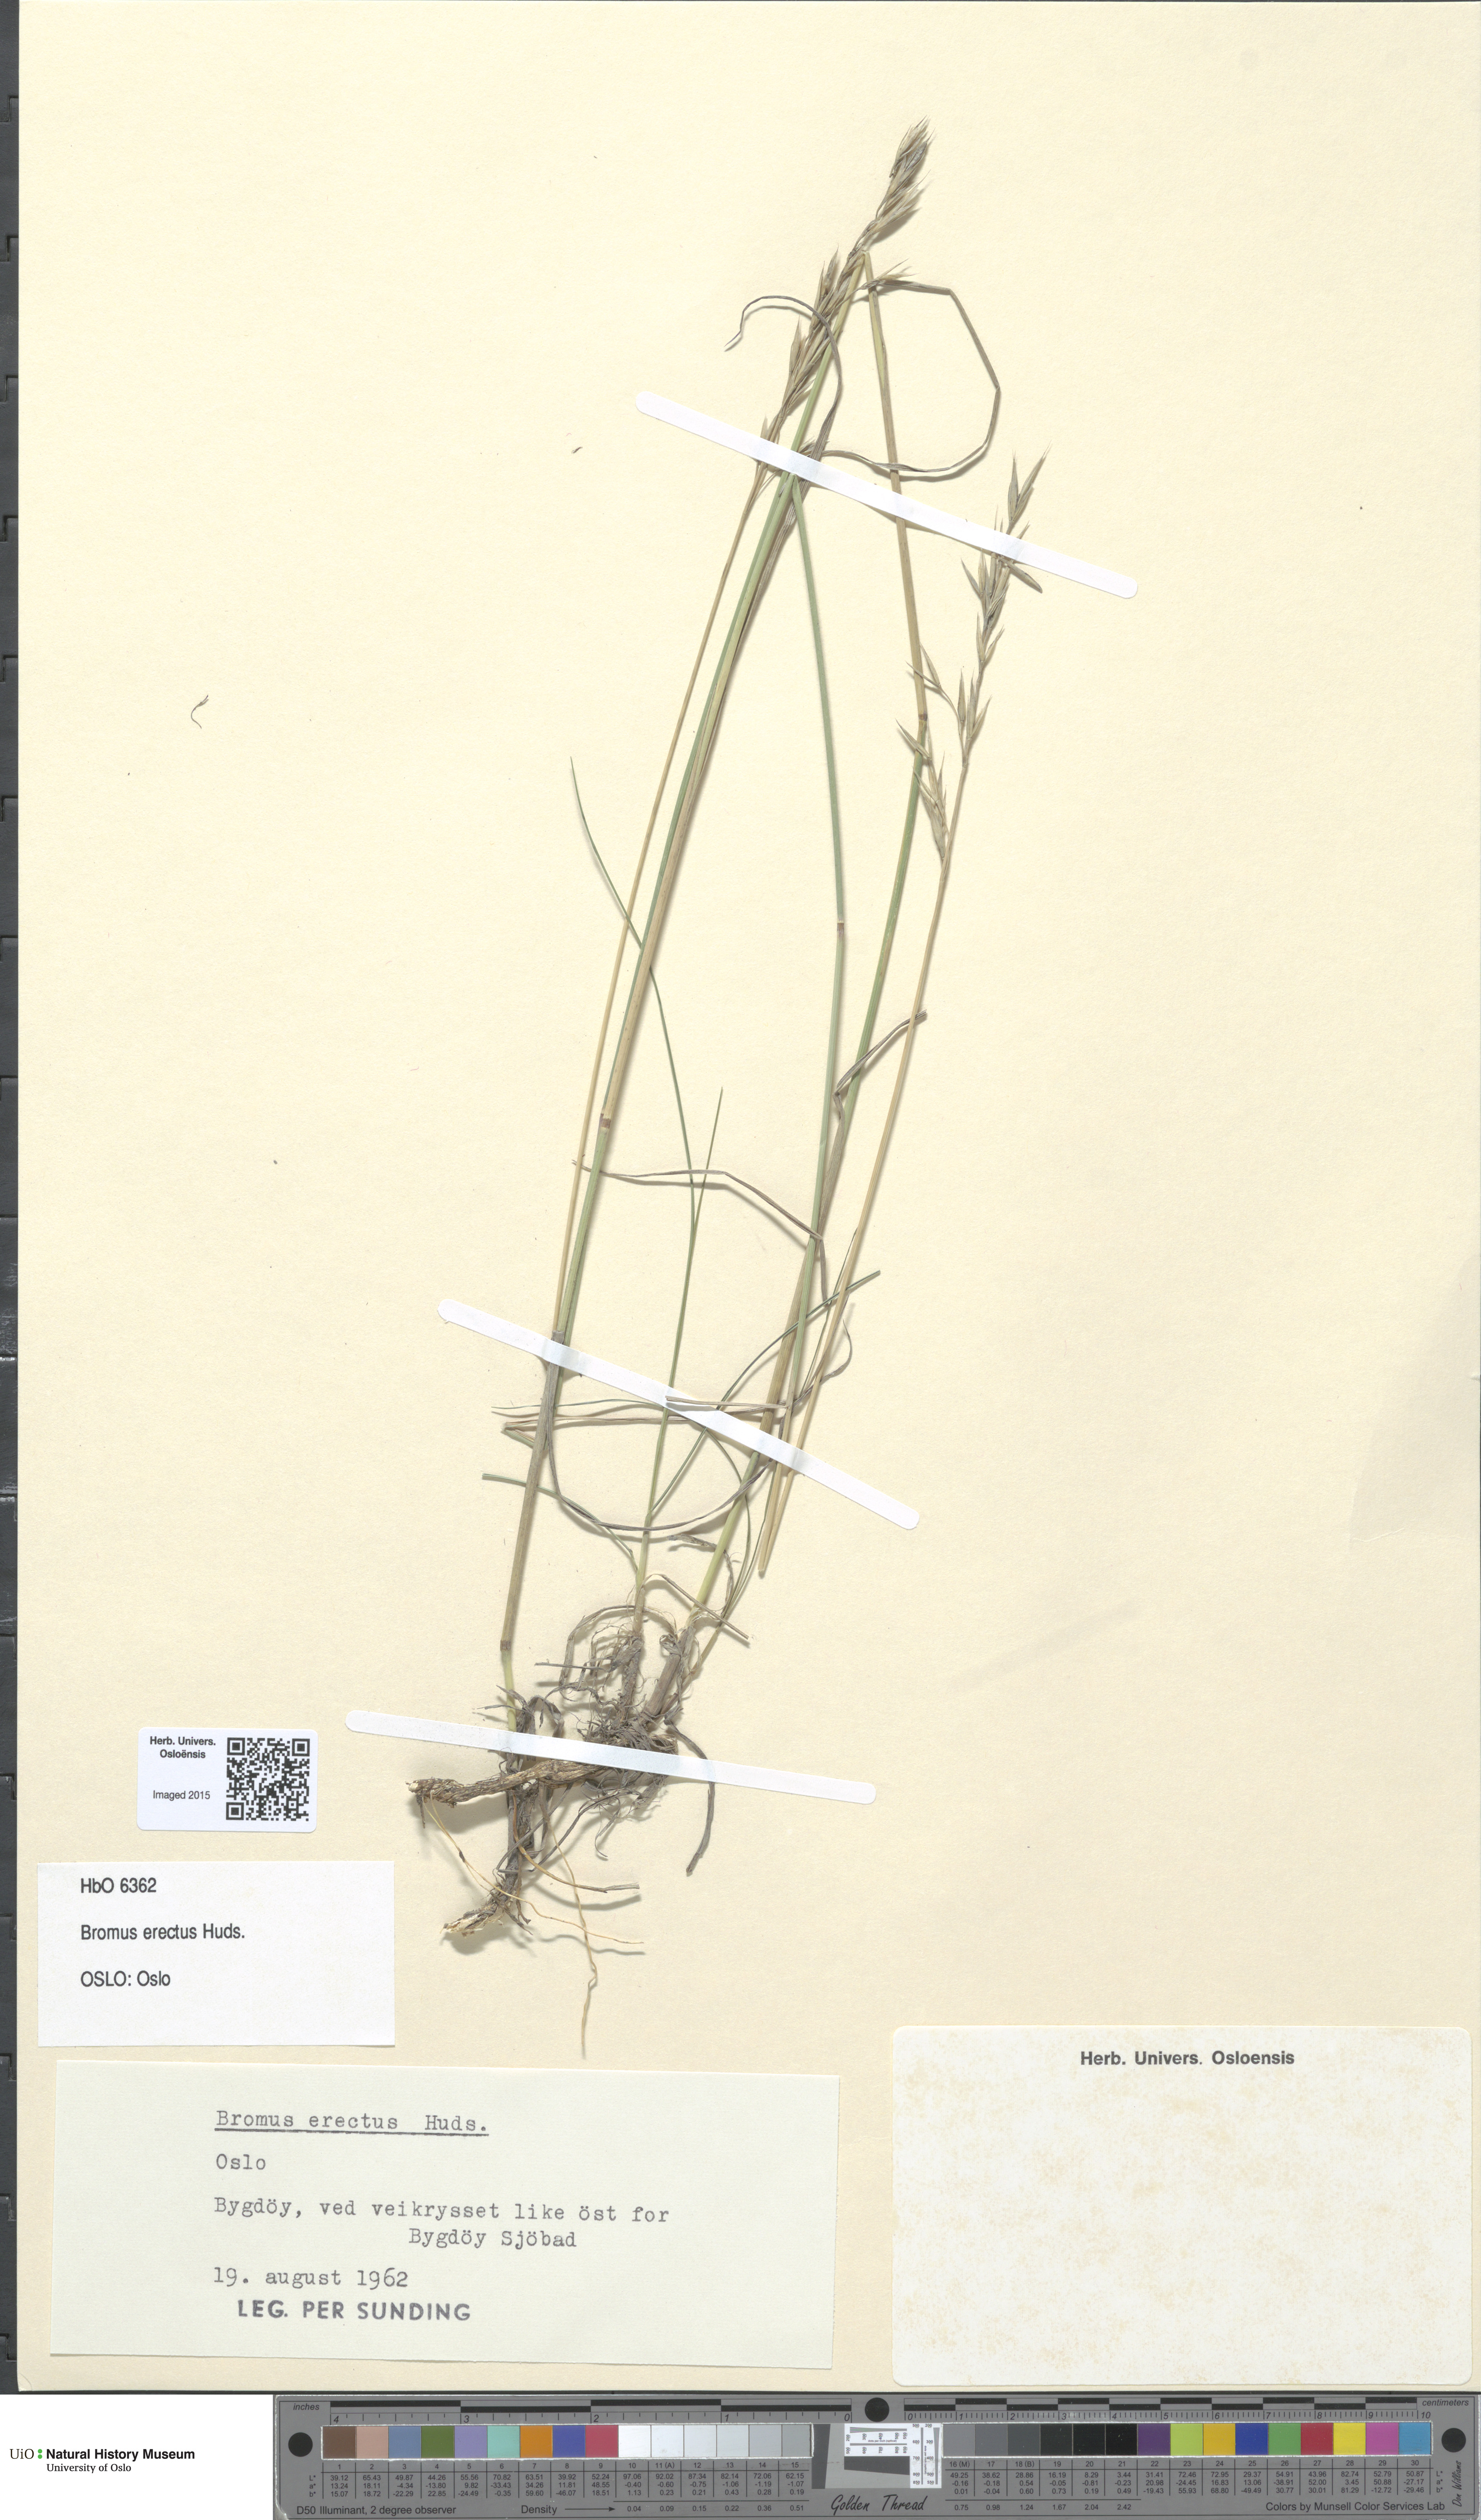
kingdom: Plantae
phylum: Tracheophyta
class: Liliopsida
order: Poales
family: Poaceae
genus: Bromus
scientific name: Bromus erectus
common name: Erect brome
